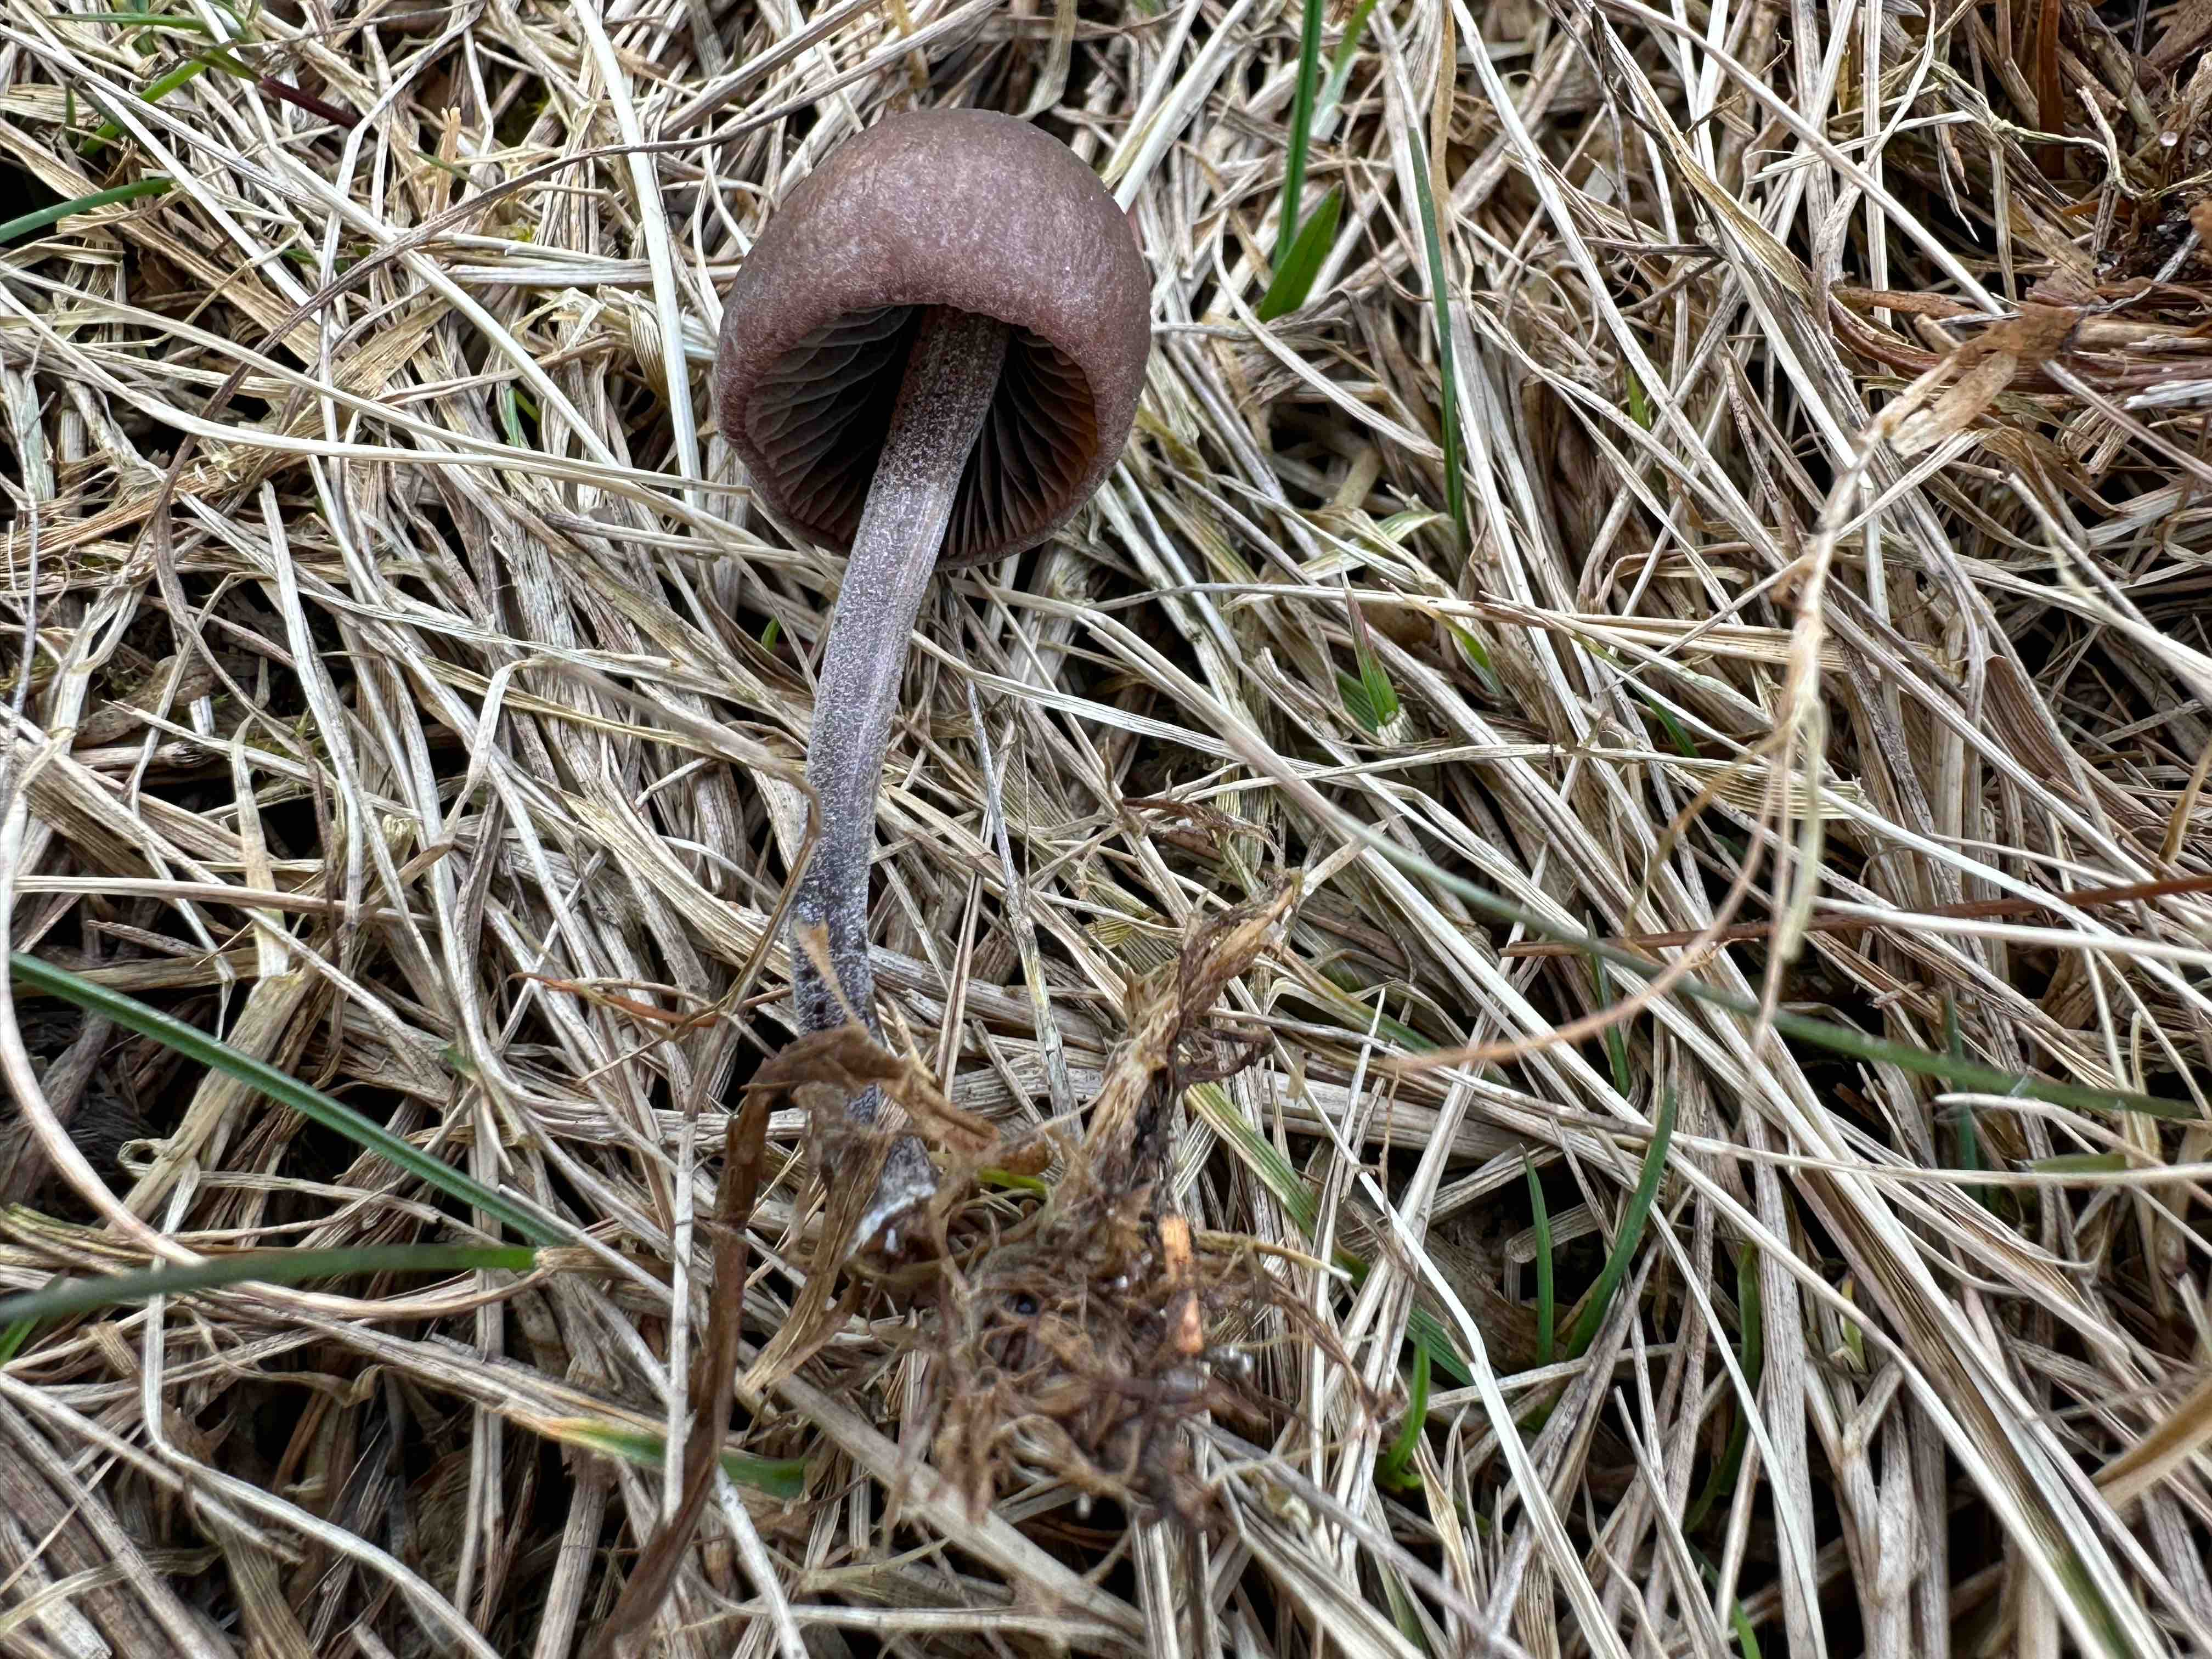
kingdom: Fungi
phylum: Basidiomycota
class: Agaricomycetes
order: Agaricales
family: Bolbitiaceae
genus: Panaeolus
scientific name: Panaeolus acuminatus
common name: høj glanshat
